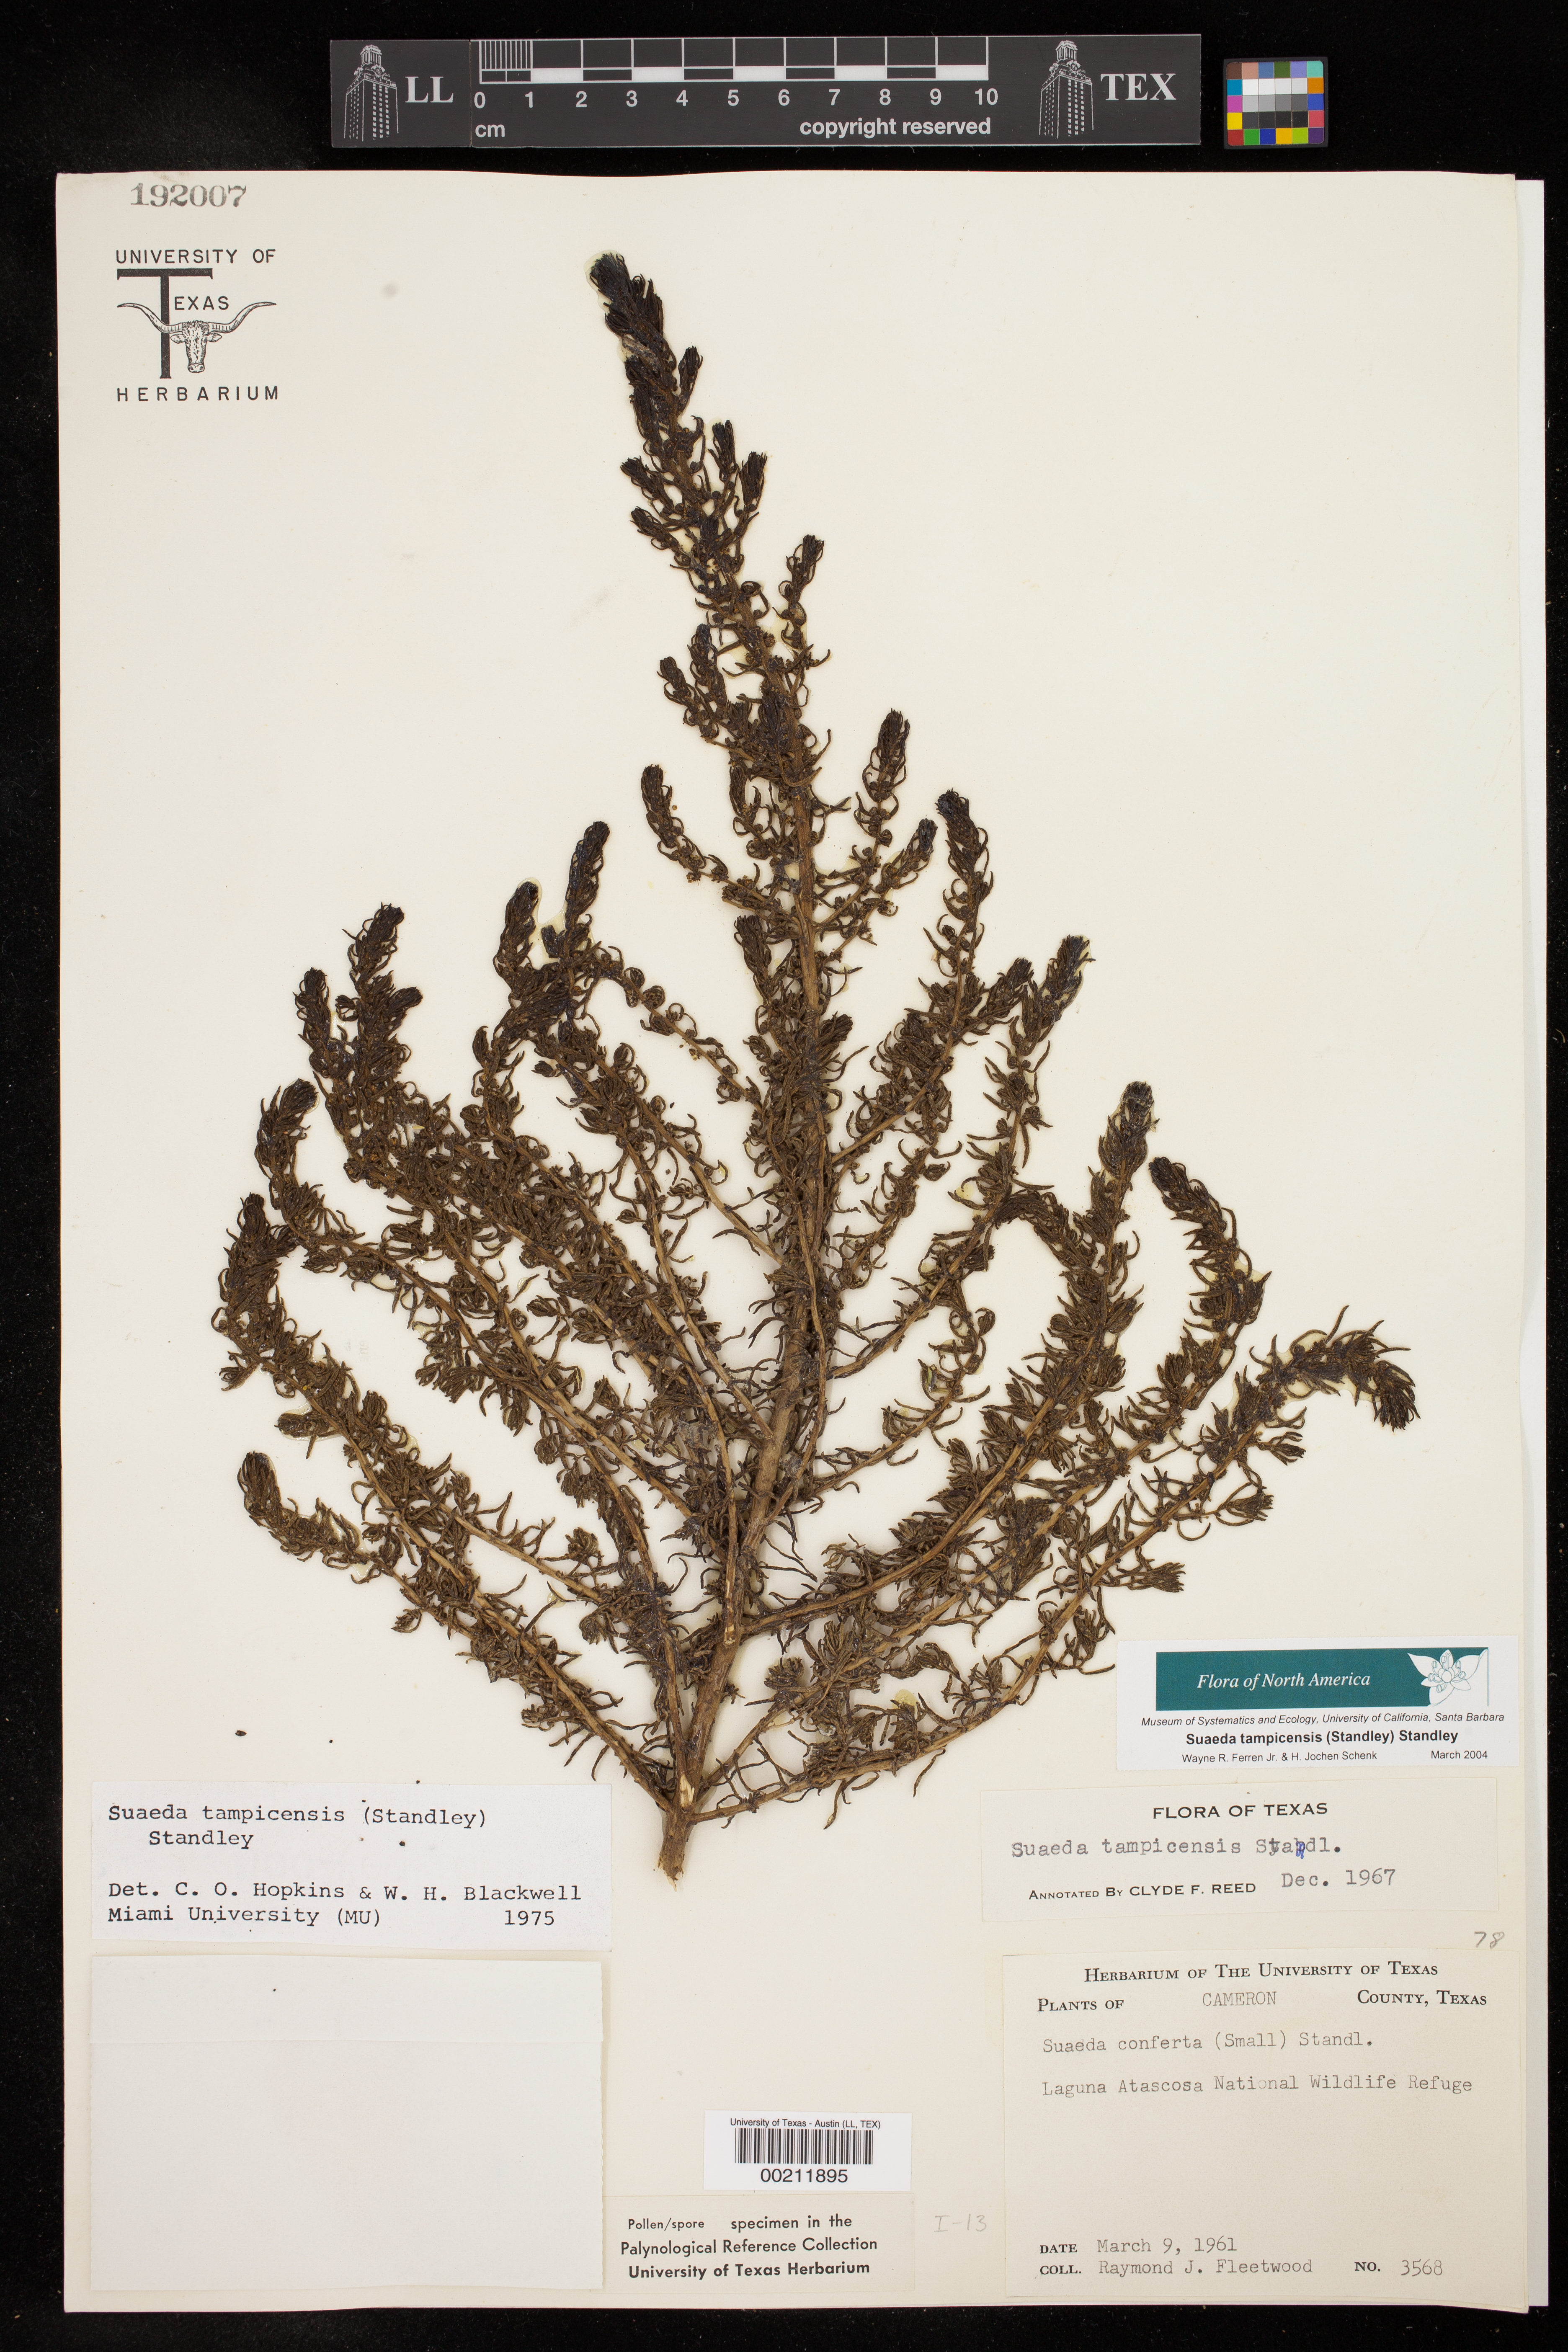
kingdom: Plantae
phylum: Tracheophyta
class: Magnoliopsida
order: Caryophyllales
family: Amaranthaceae
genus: Suaeda
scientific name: Suaeda tampicensis
